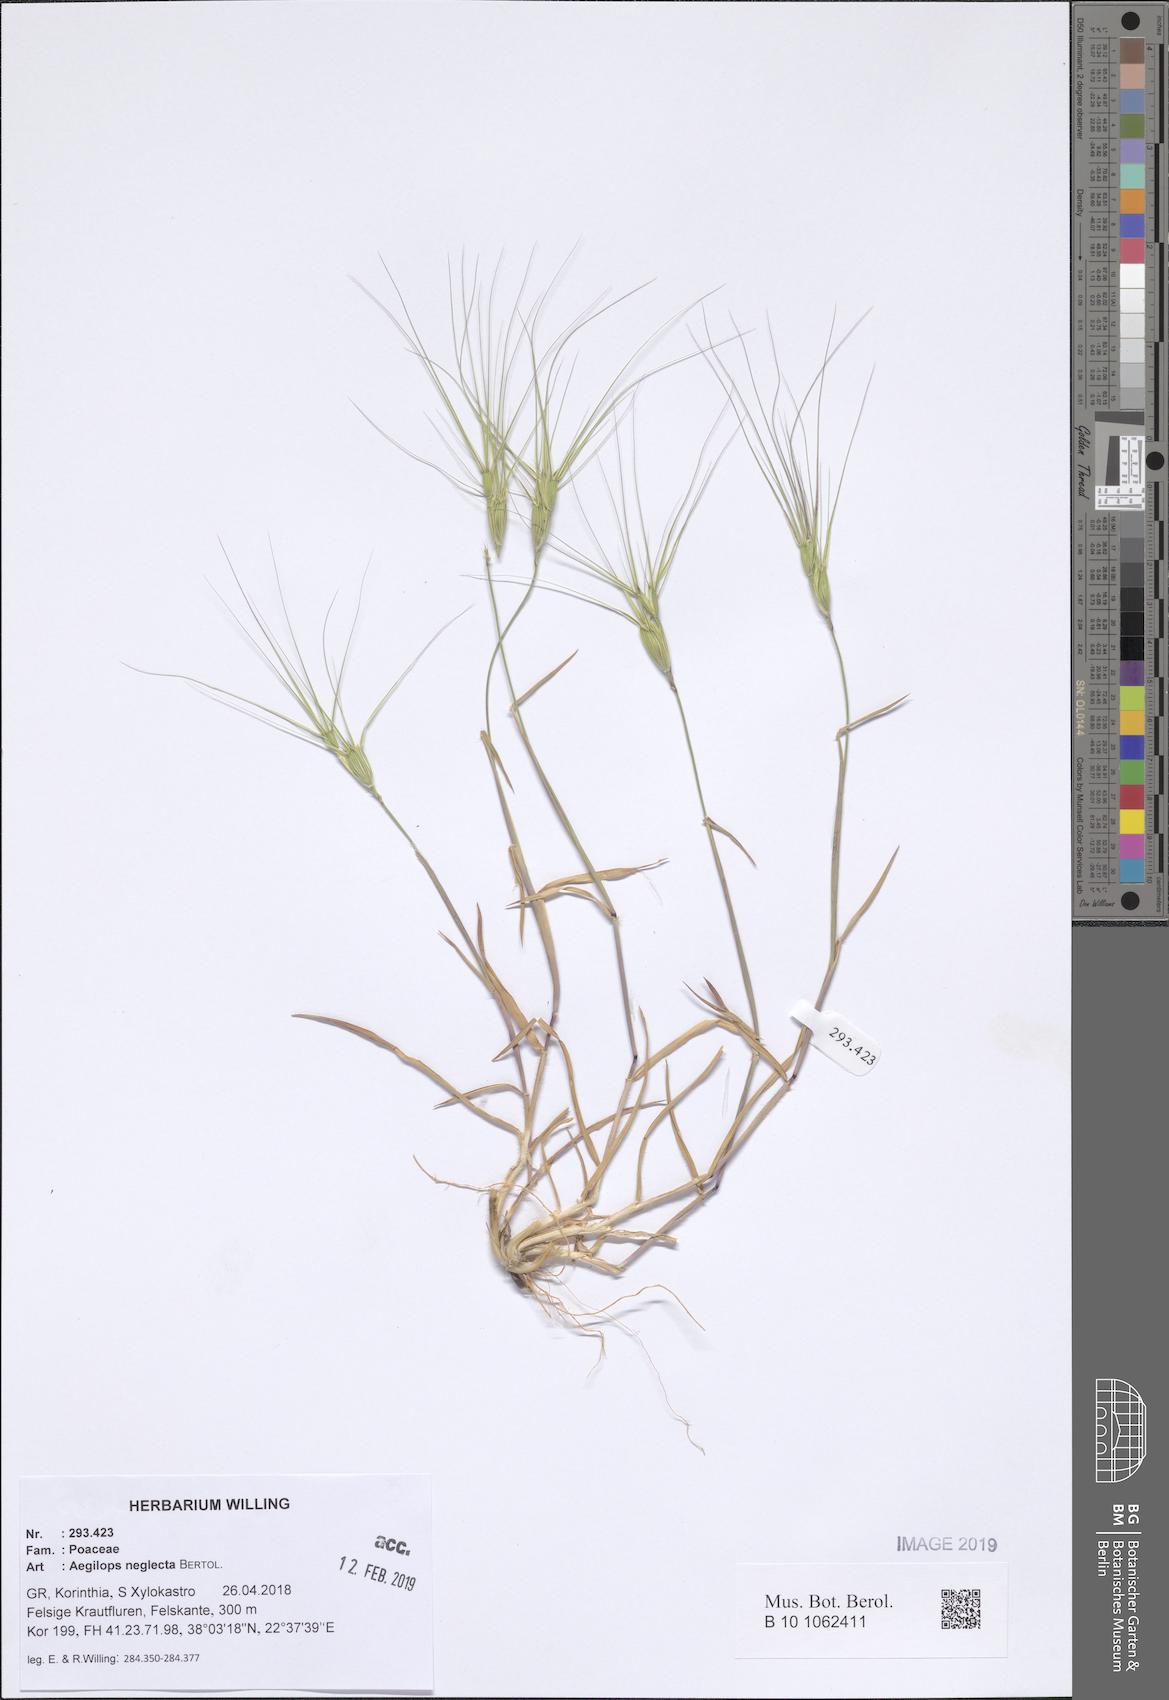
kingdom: Plantae
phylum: Tracheophyta
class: Liliopsida
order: Poales
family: Poaceae
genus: Aegilops
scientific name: Aegilops neglecta
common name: Three-awn goat grass
